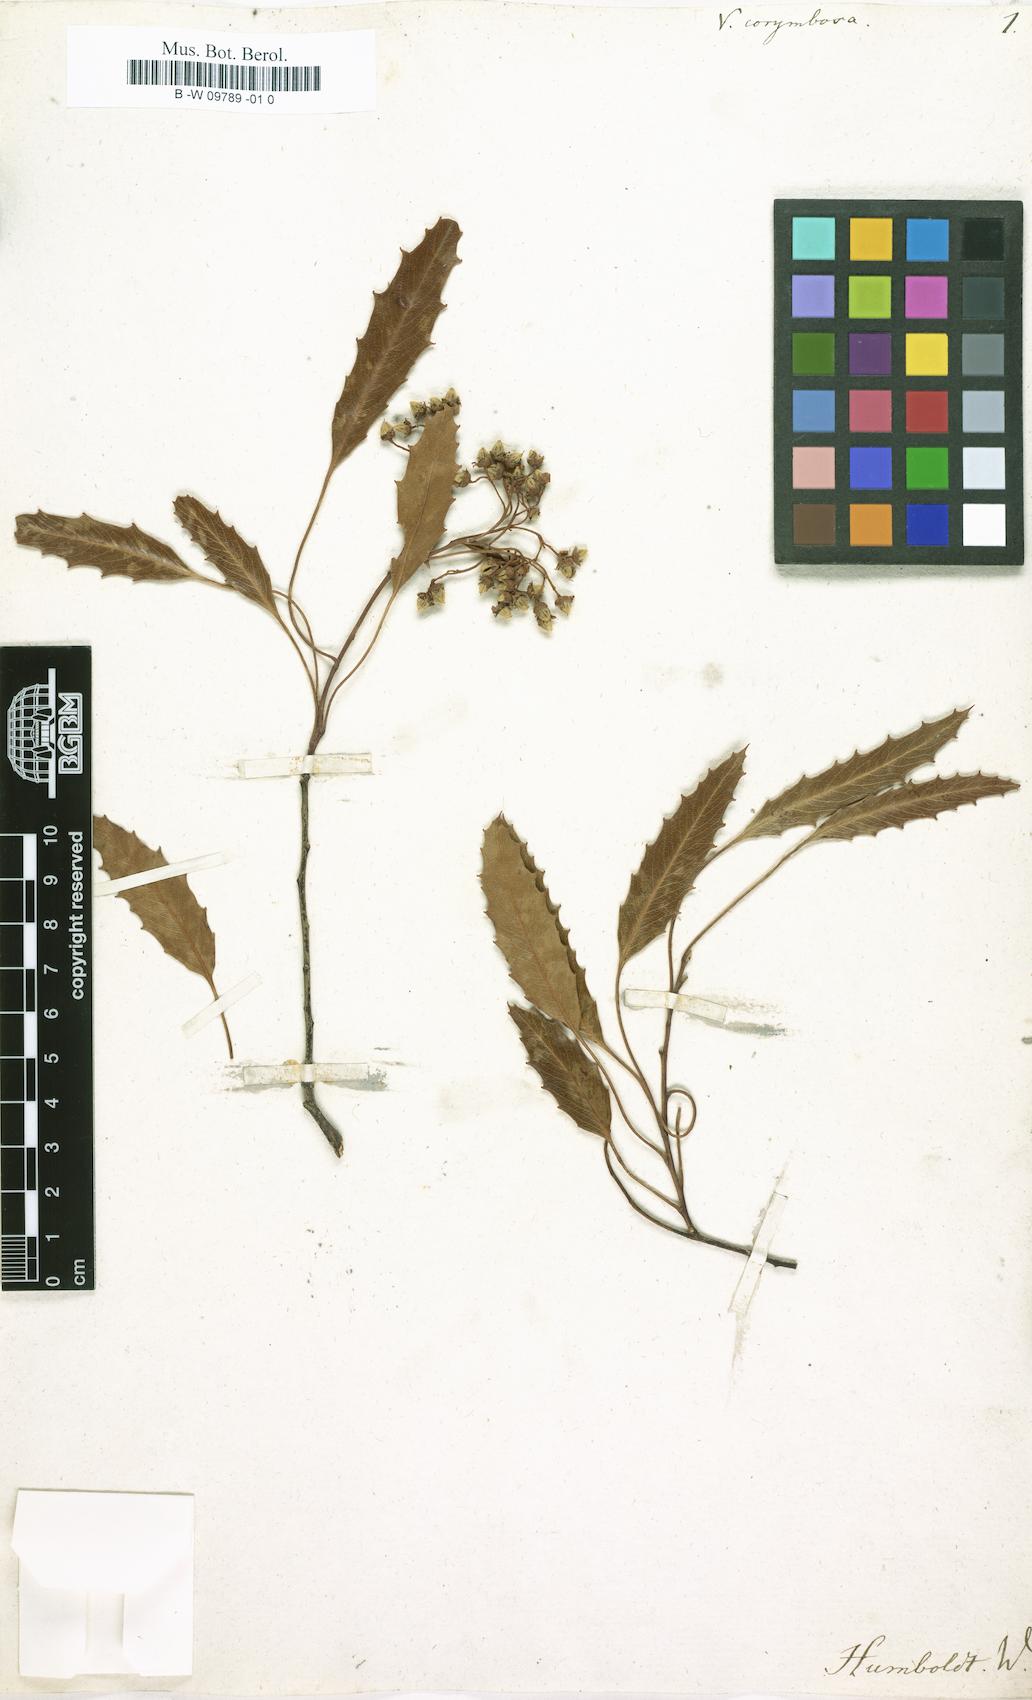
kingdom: Plantae
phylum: Tracheophyta
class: Magnoliopsida
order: Rosales
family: Rosaceae
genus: Vauquelinia
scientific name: Vauquelinia corymbosa
